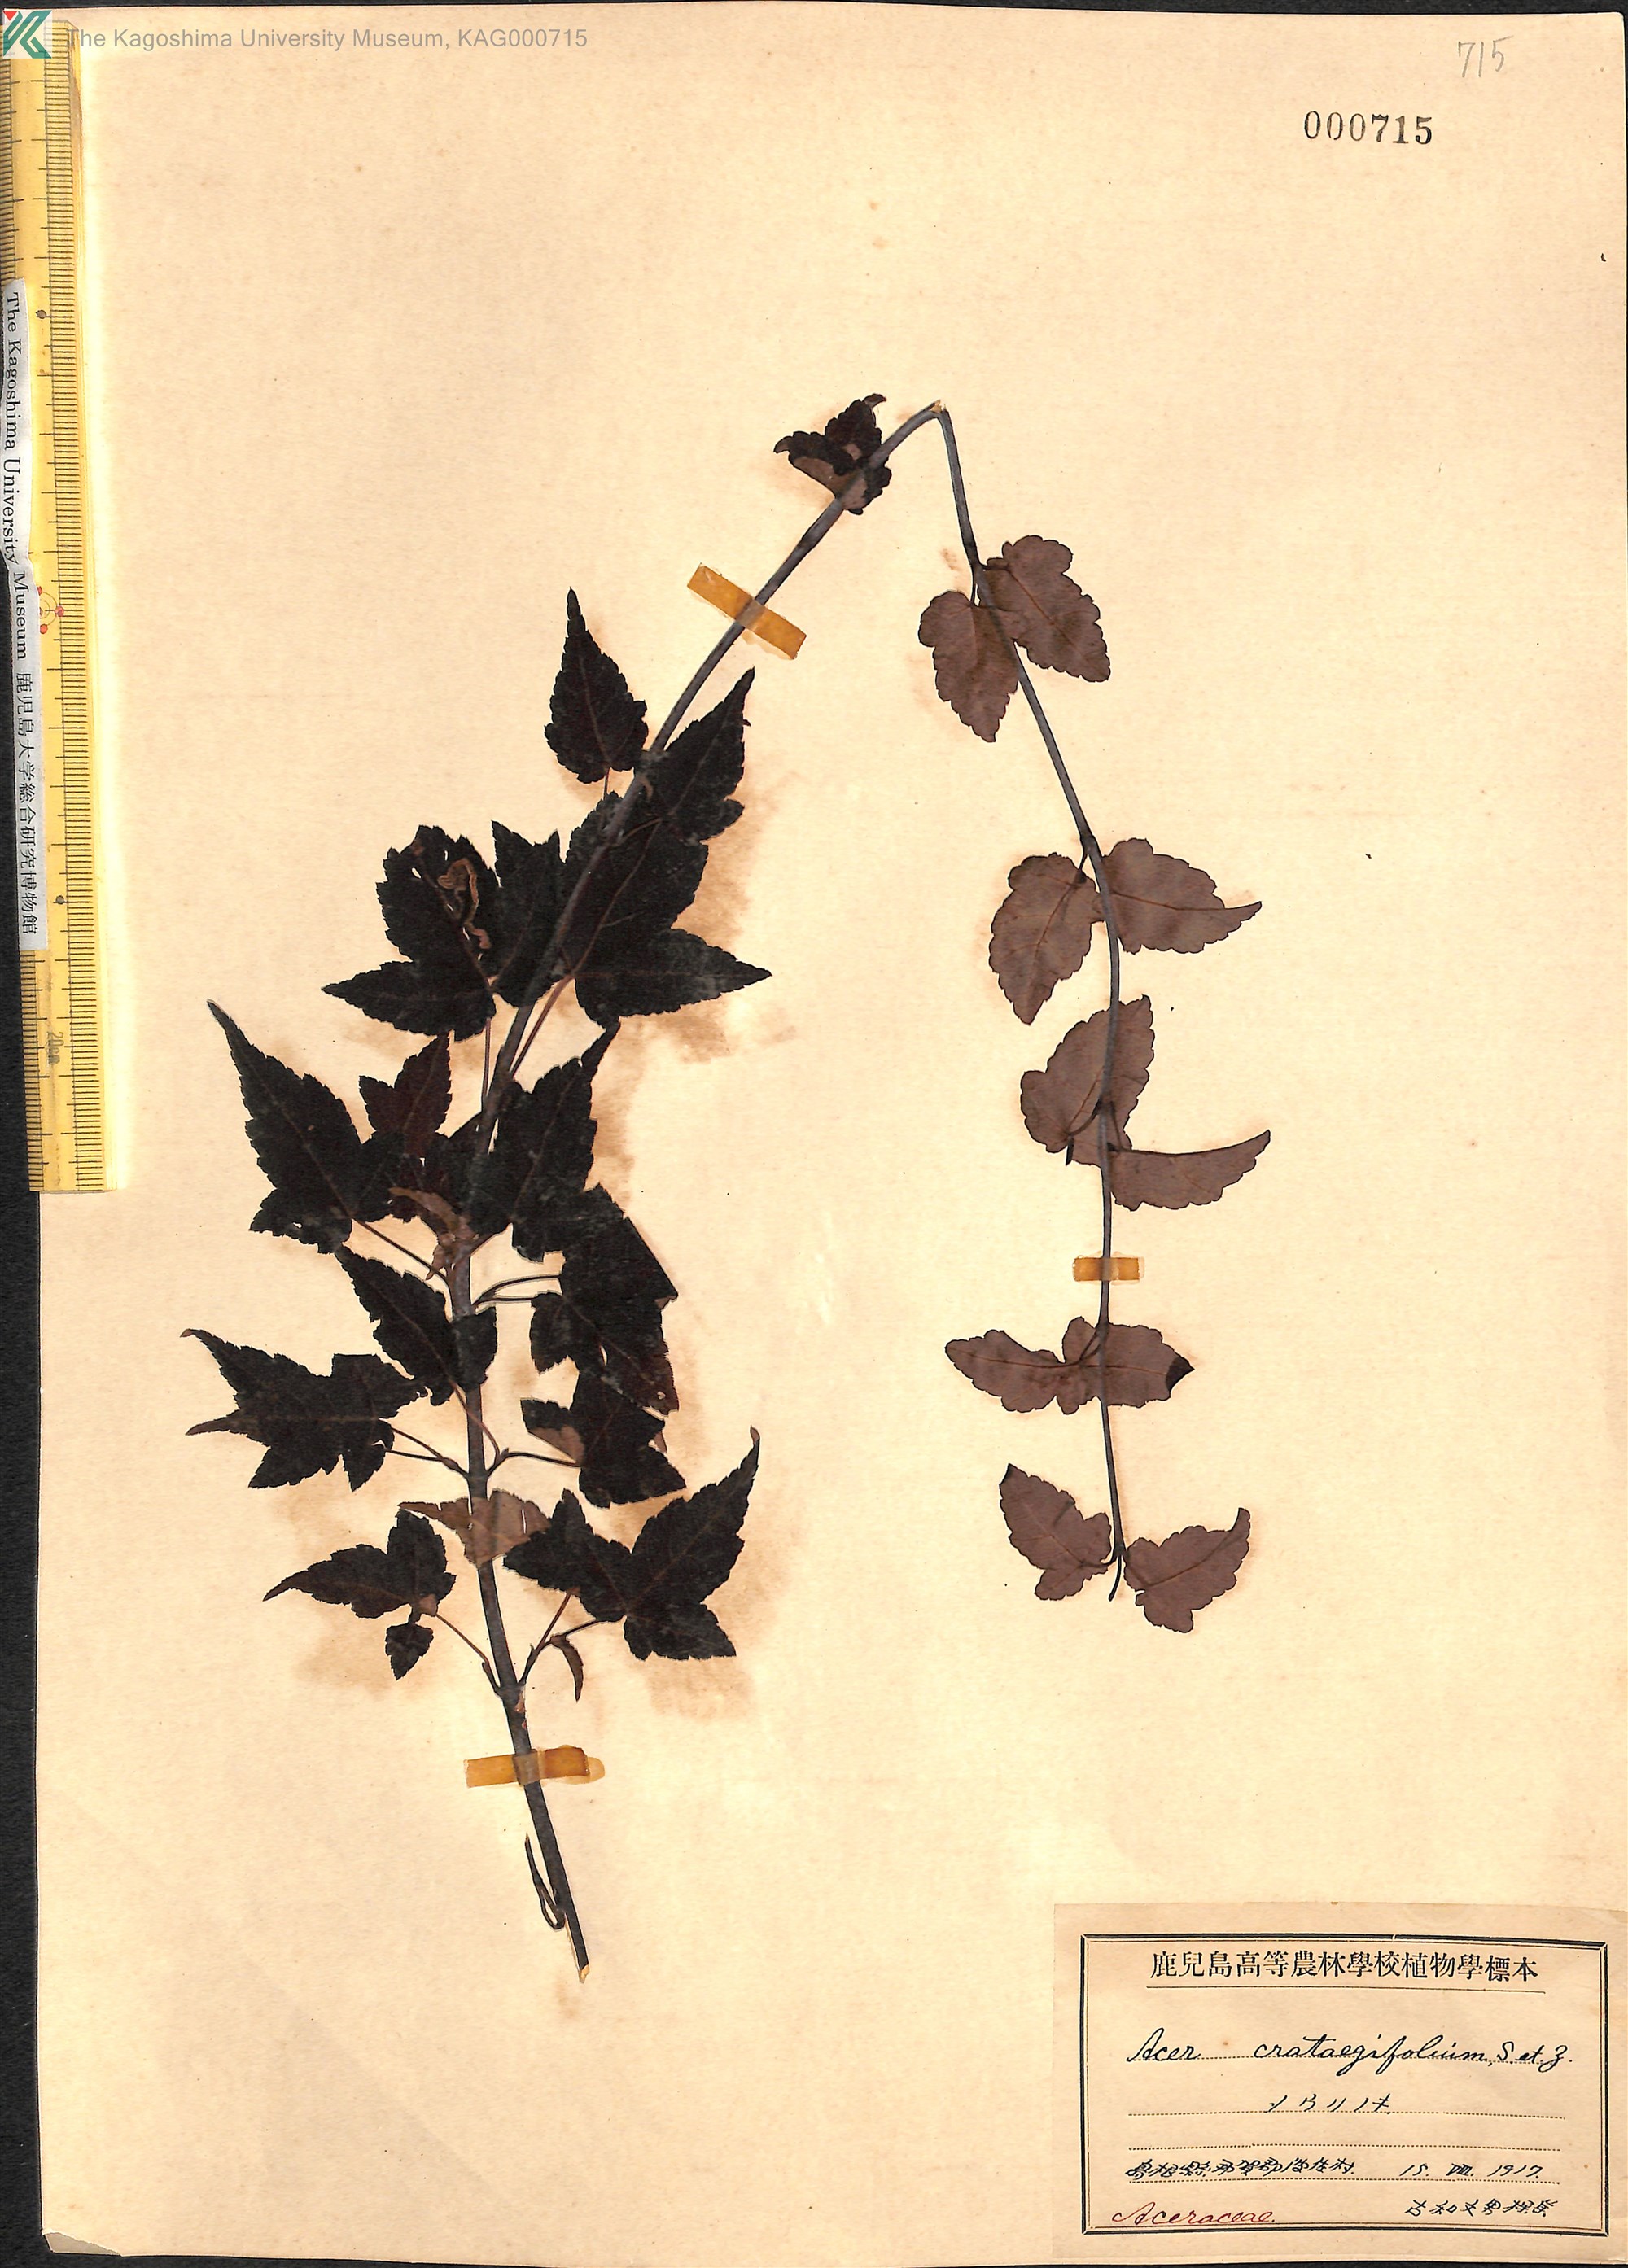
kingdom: Plantae
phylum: Tracheophyta
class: Magnoliopsida
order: Sapindales
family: Sapindaceae
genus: Acer
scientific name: Acer crataegifolium
